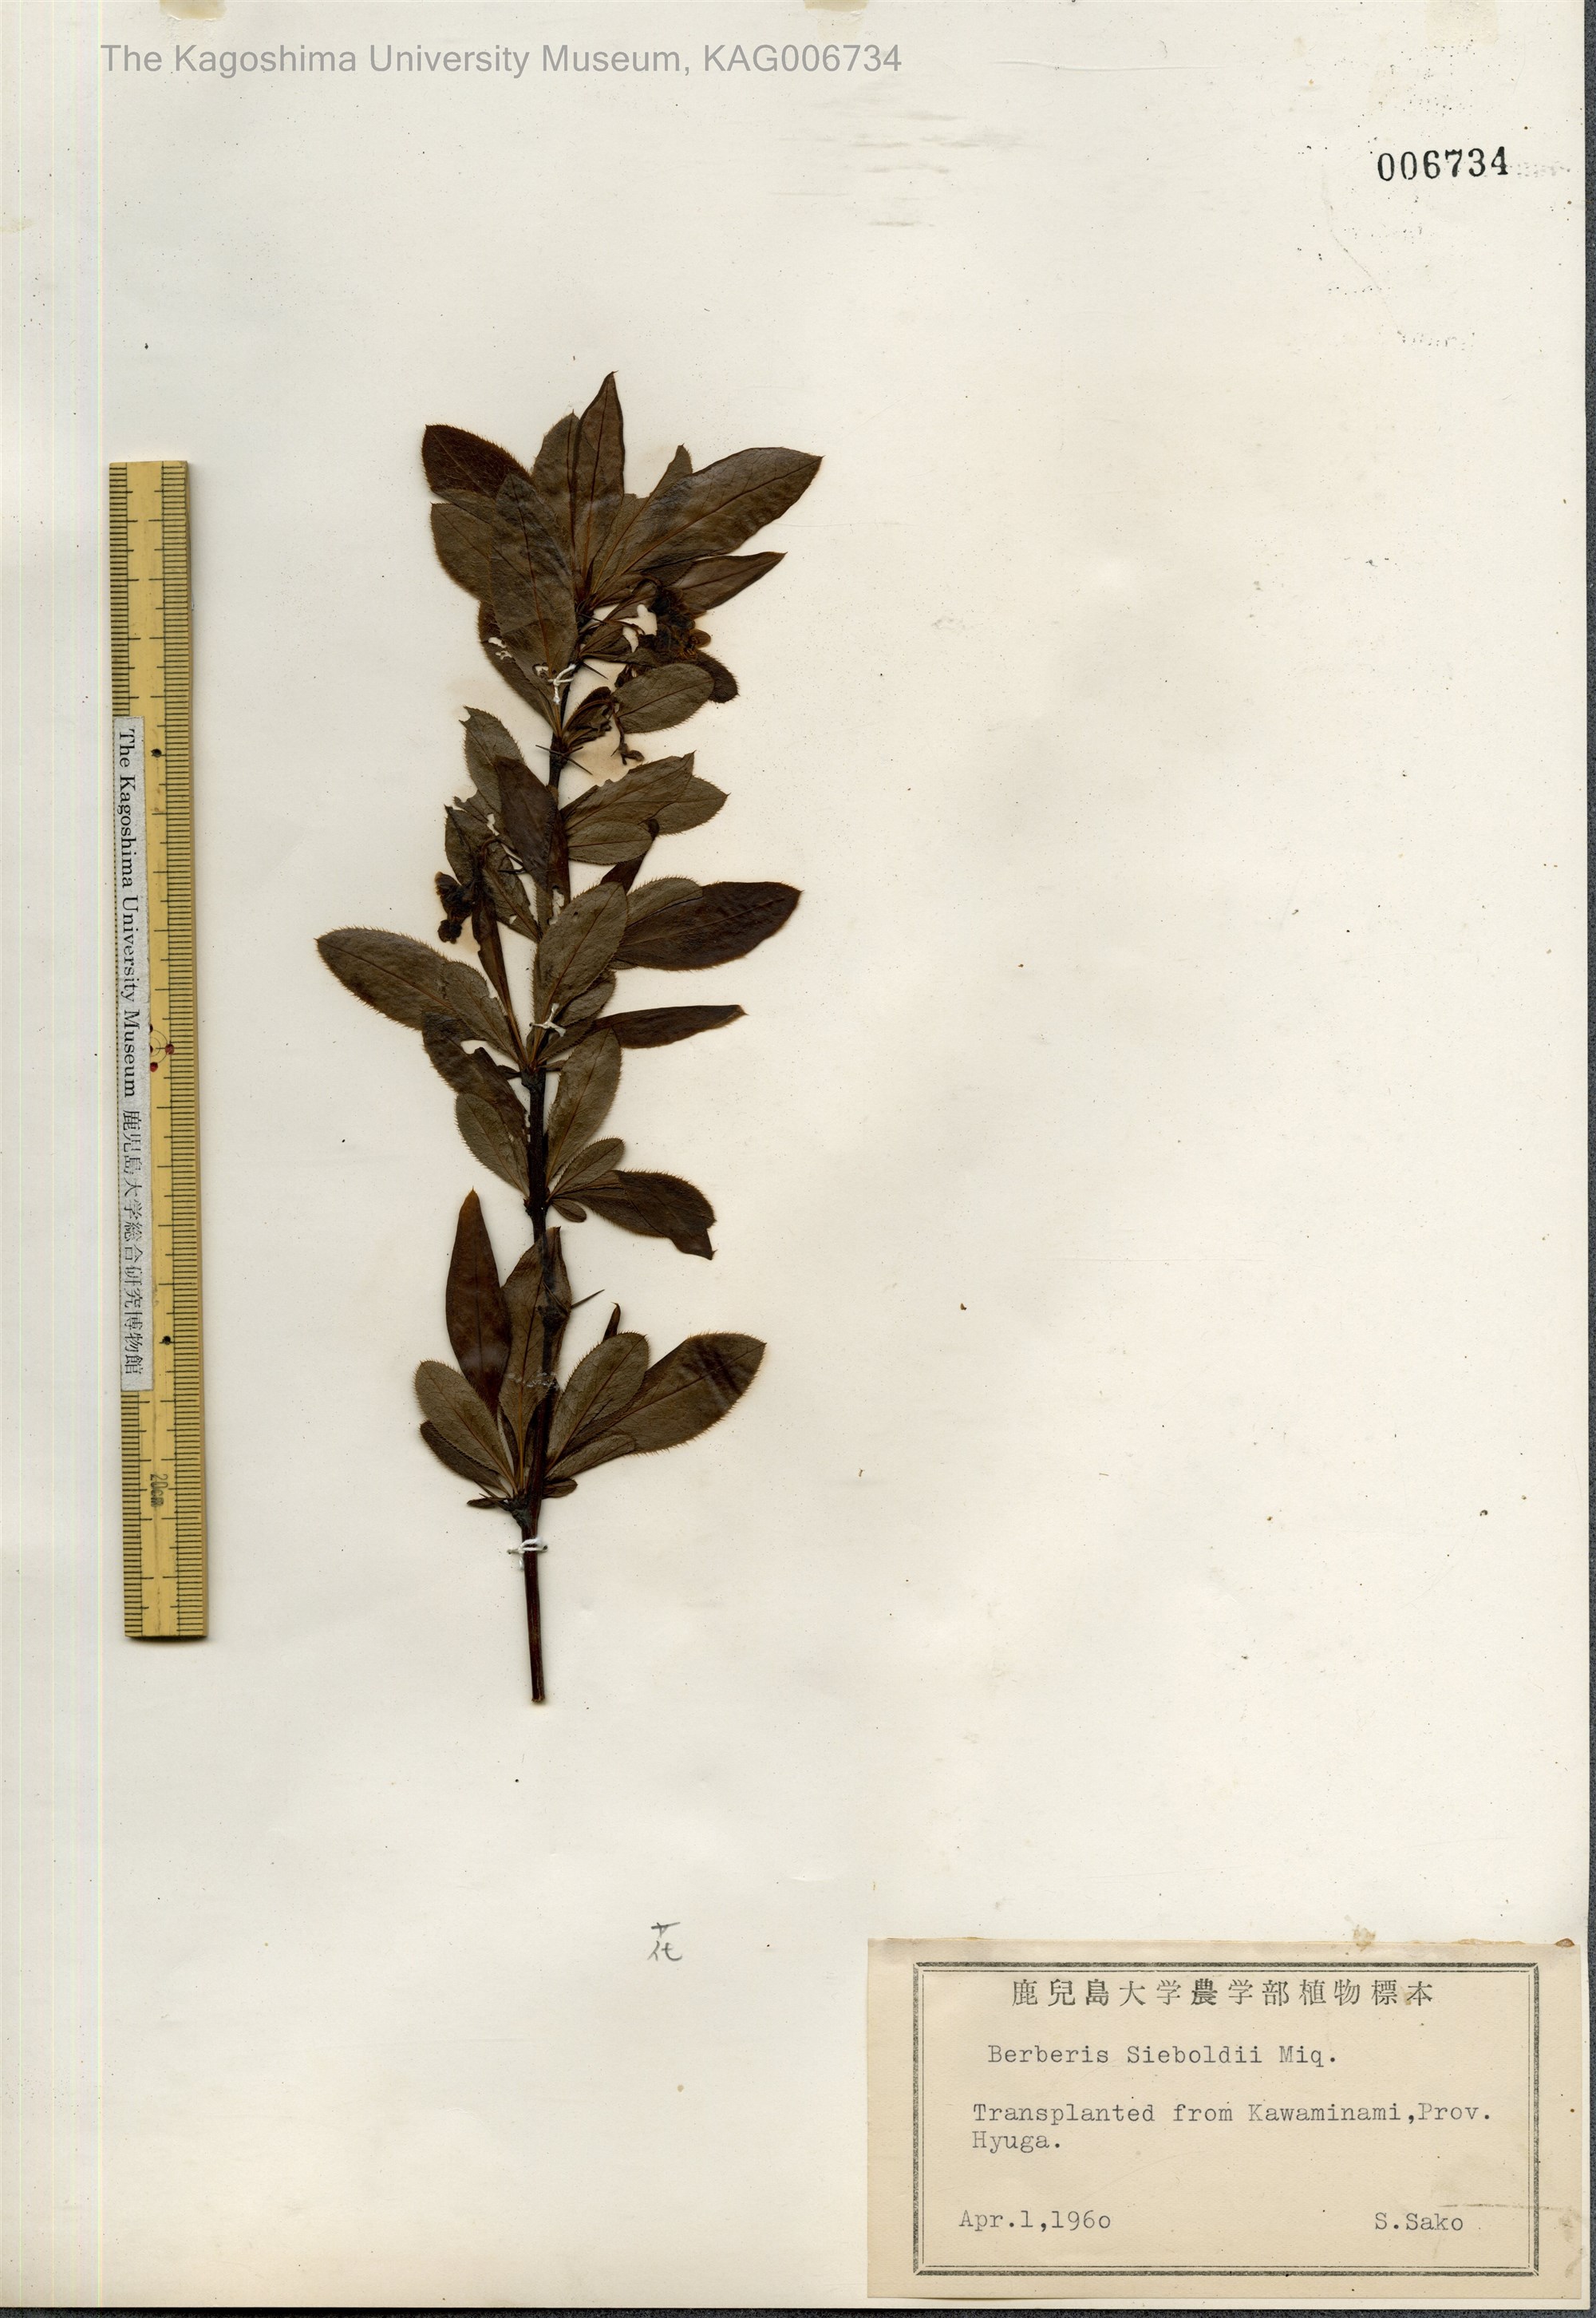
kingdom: Plantae
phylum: Tracheophyta
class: Magnoliopsida
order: Ranunculales
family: Berberidaceae
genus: Berberis
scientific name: Berberis sieboldii
